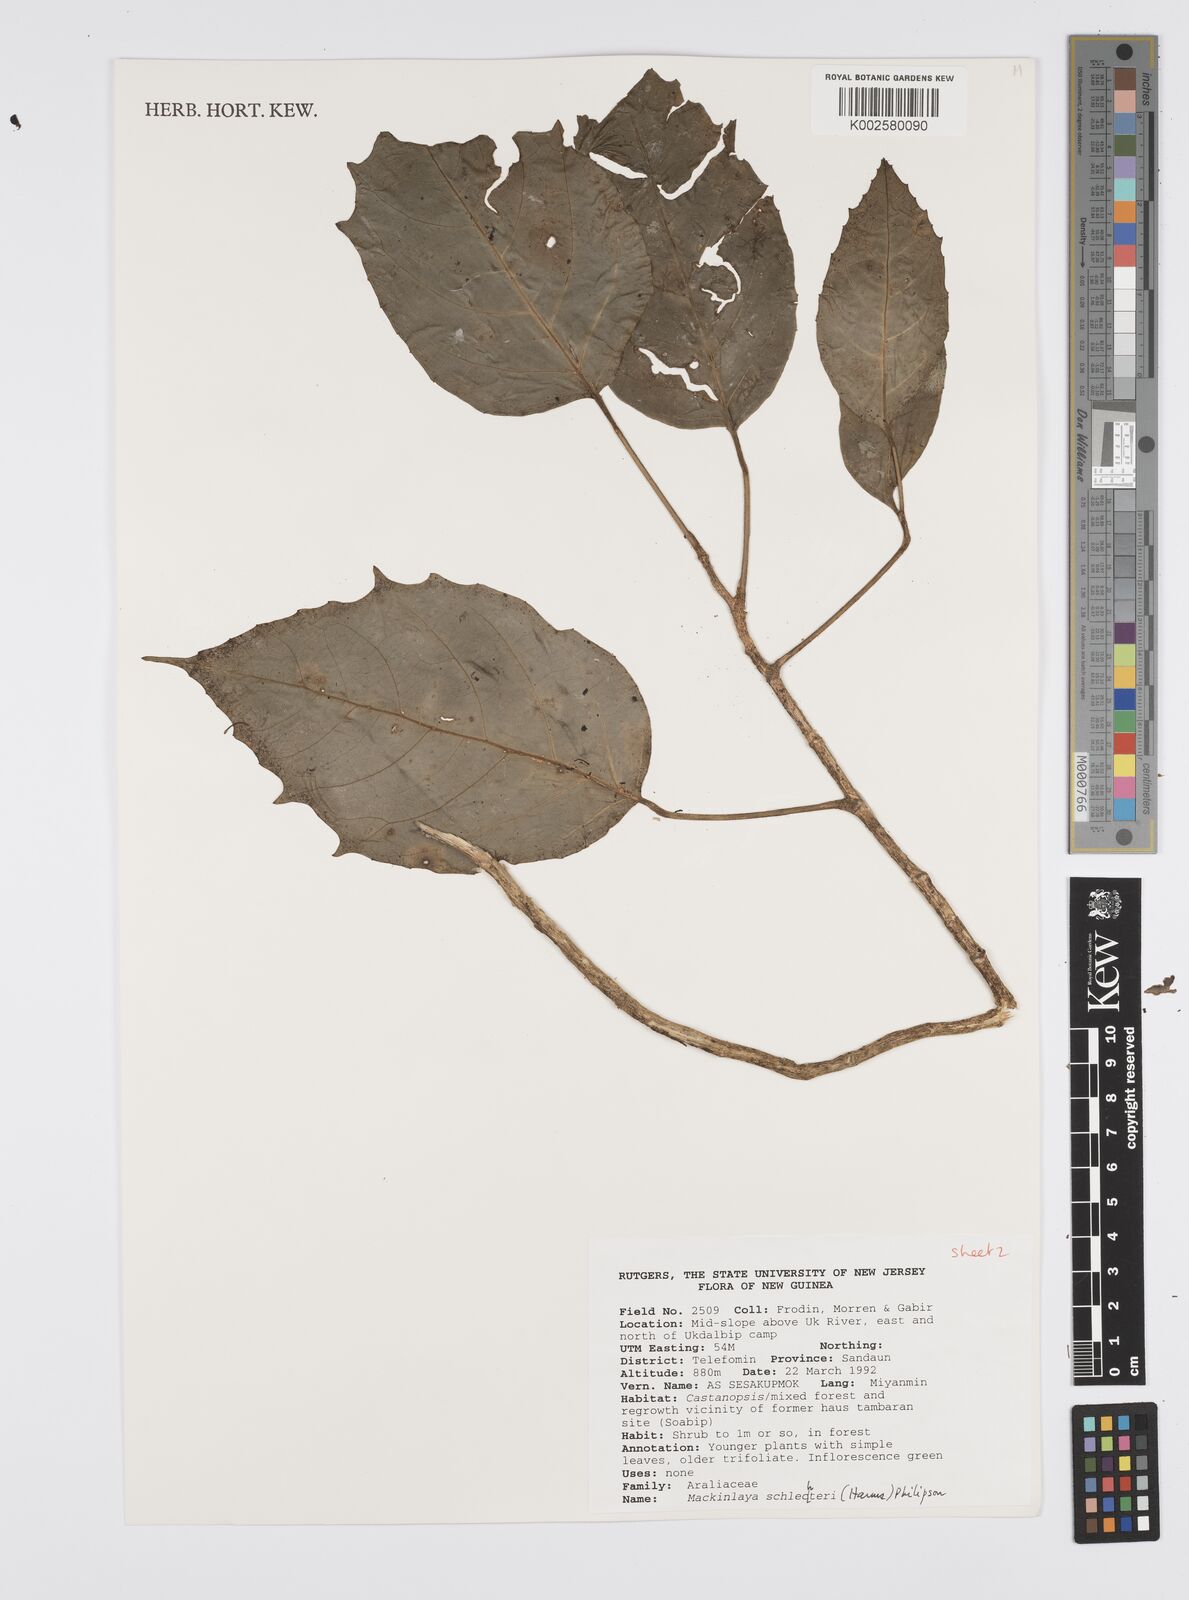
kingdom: Plantae
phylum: Tracheophyta
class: Magnoliopsida
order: Apiales
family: Apiaceae
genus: Mackinlaya
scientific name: Mackinlaya schlechteri
